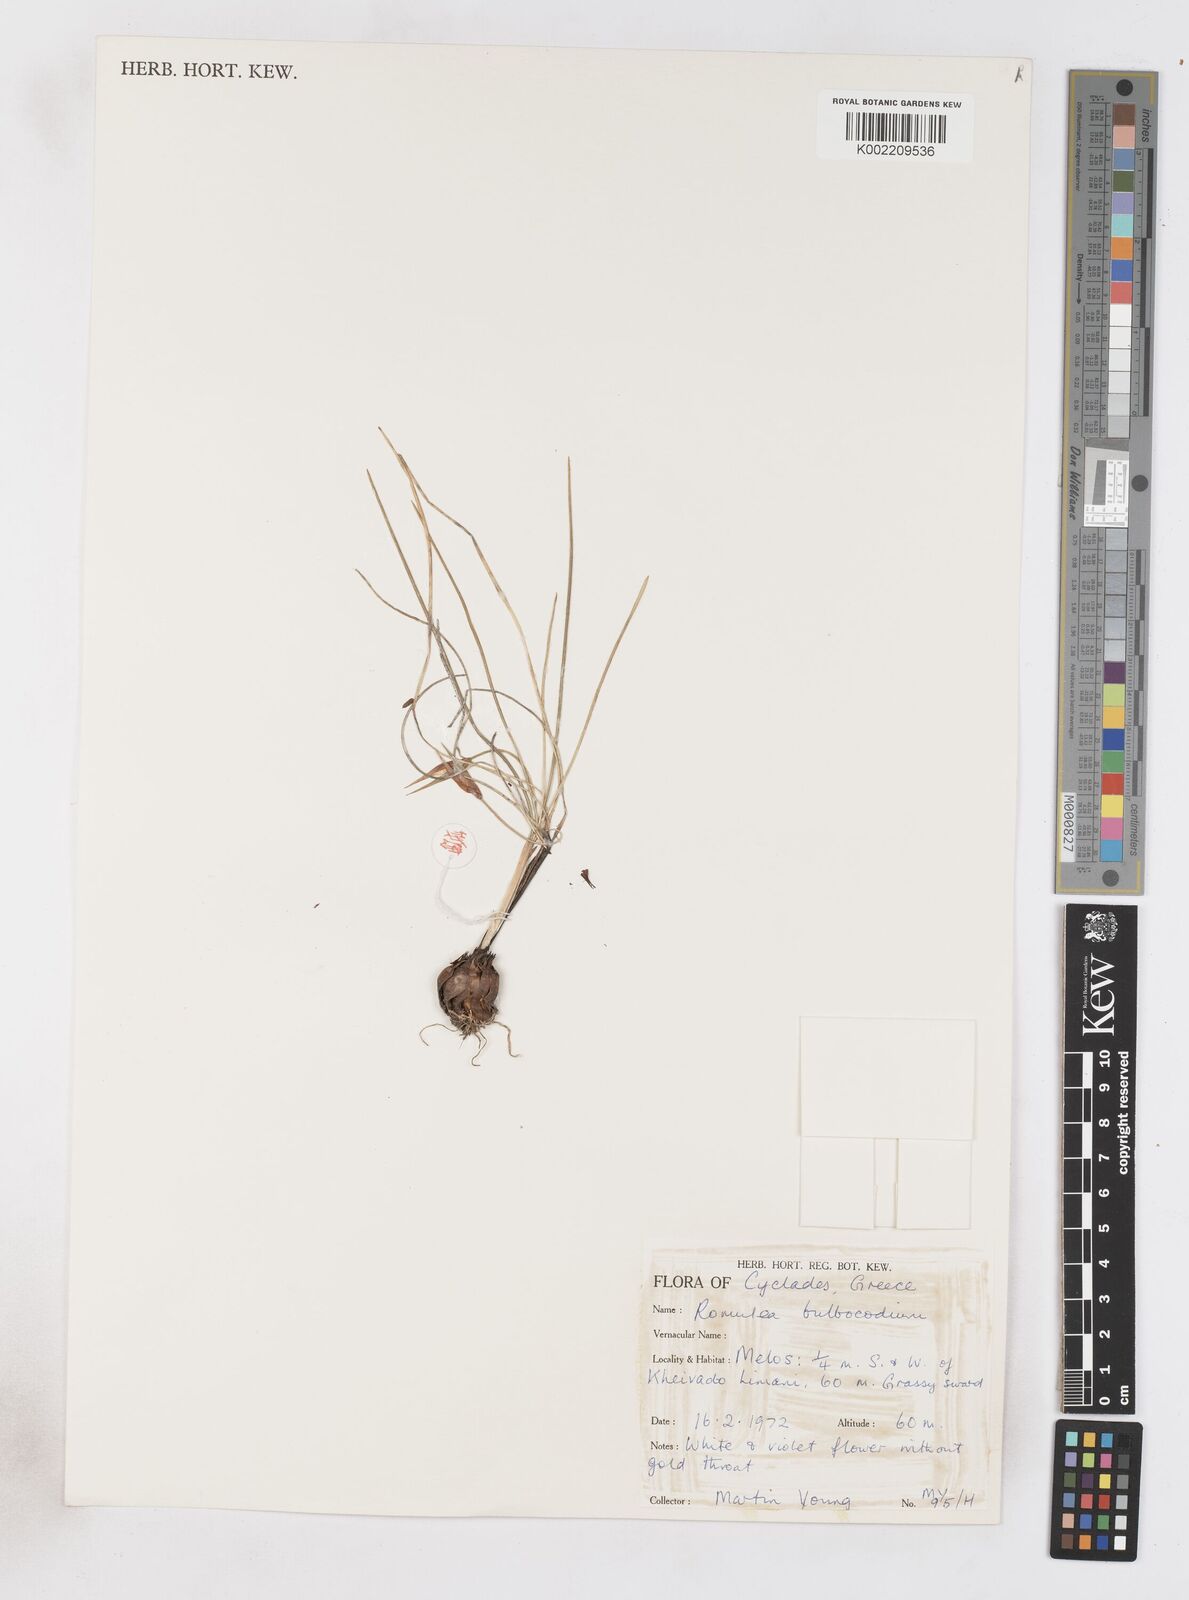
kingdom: Plantae
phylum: Tracheophyta
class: Liliopsida
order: Asparagales
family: Iridaceae
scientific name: Iridaceae
